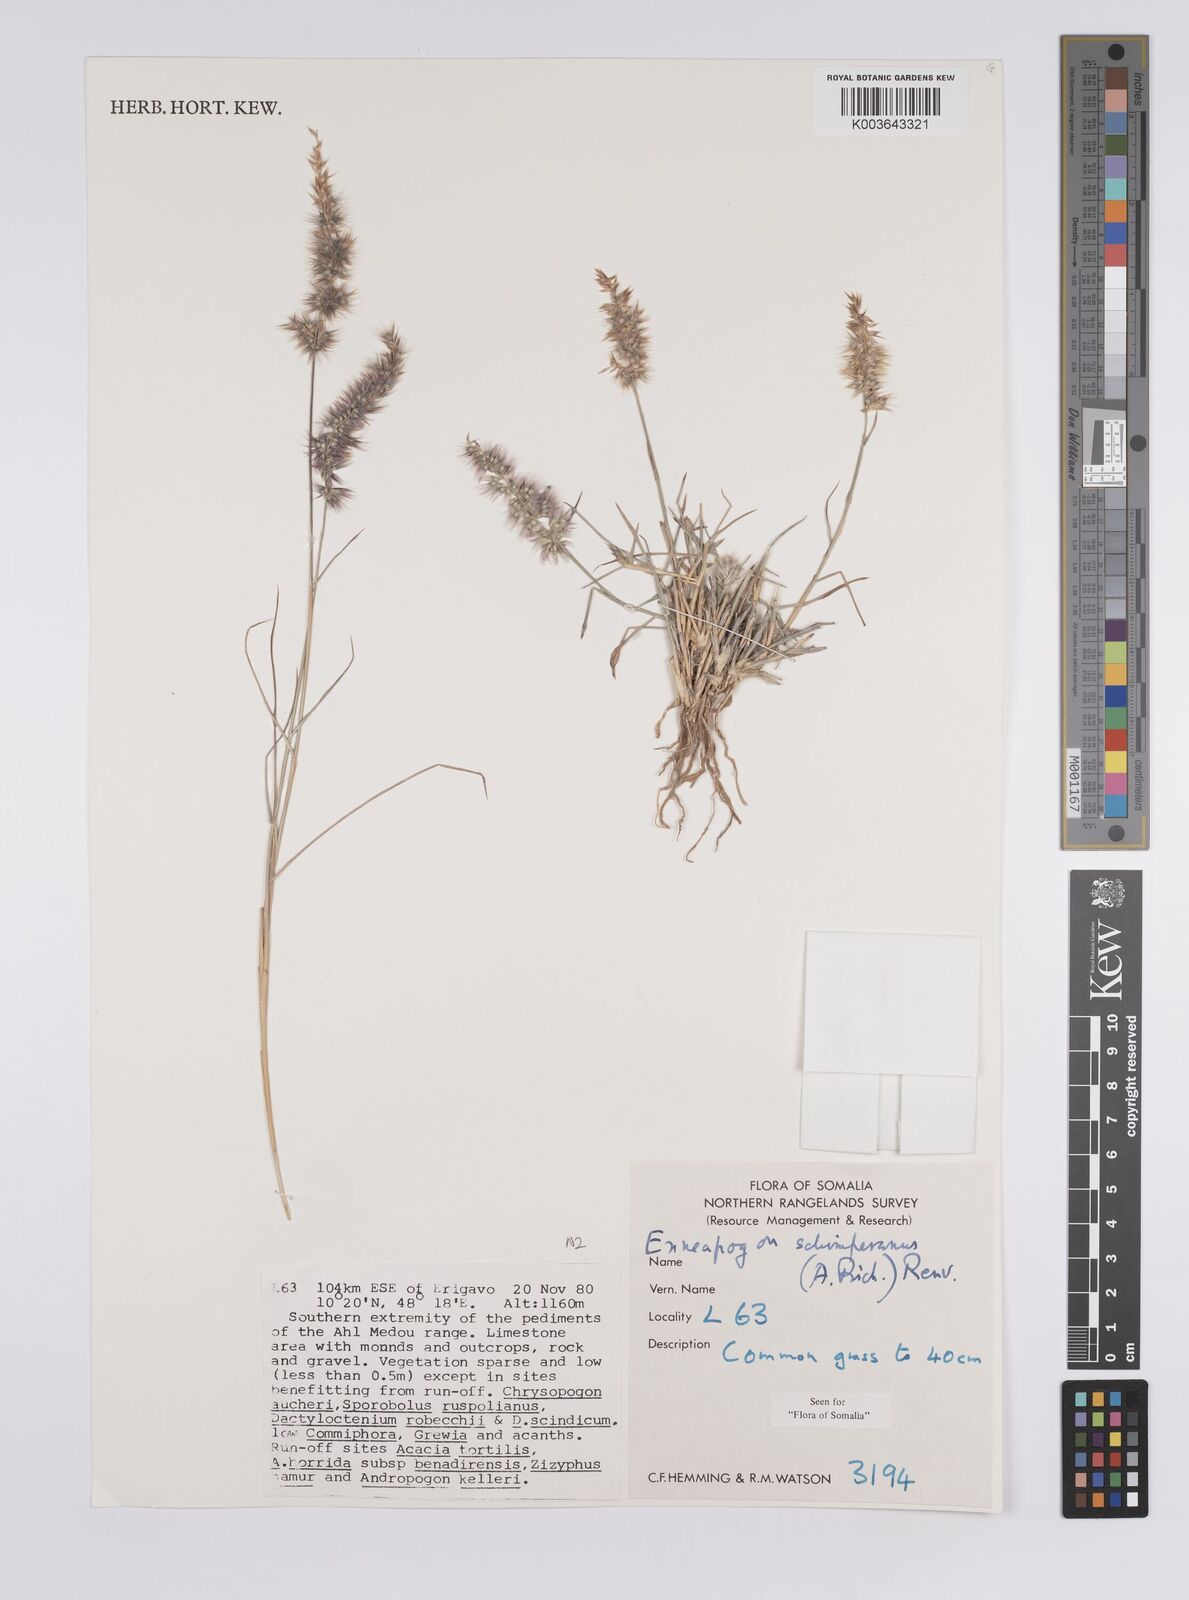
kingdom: Plantae
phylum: Tracheophyta
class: Liliopsida
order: Poales
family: Poaceae
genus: Enneapogon
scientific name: Enneapogon persicus
